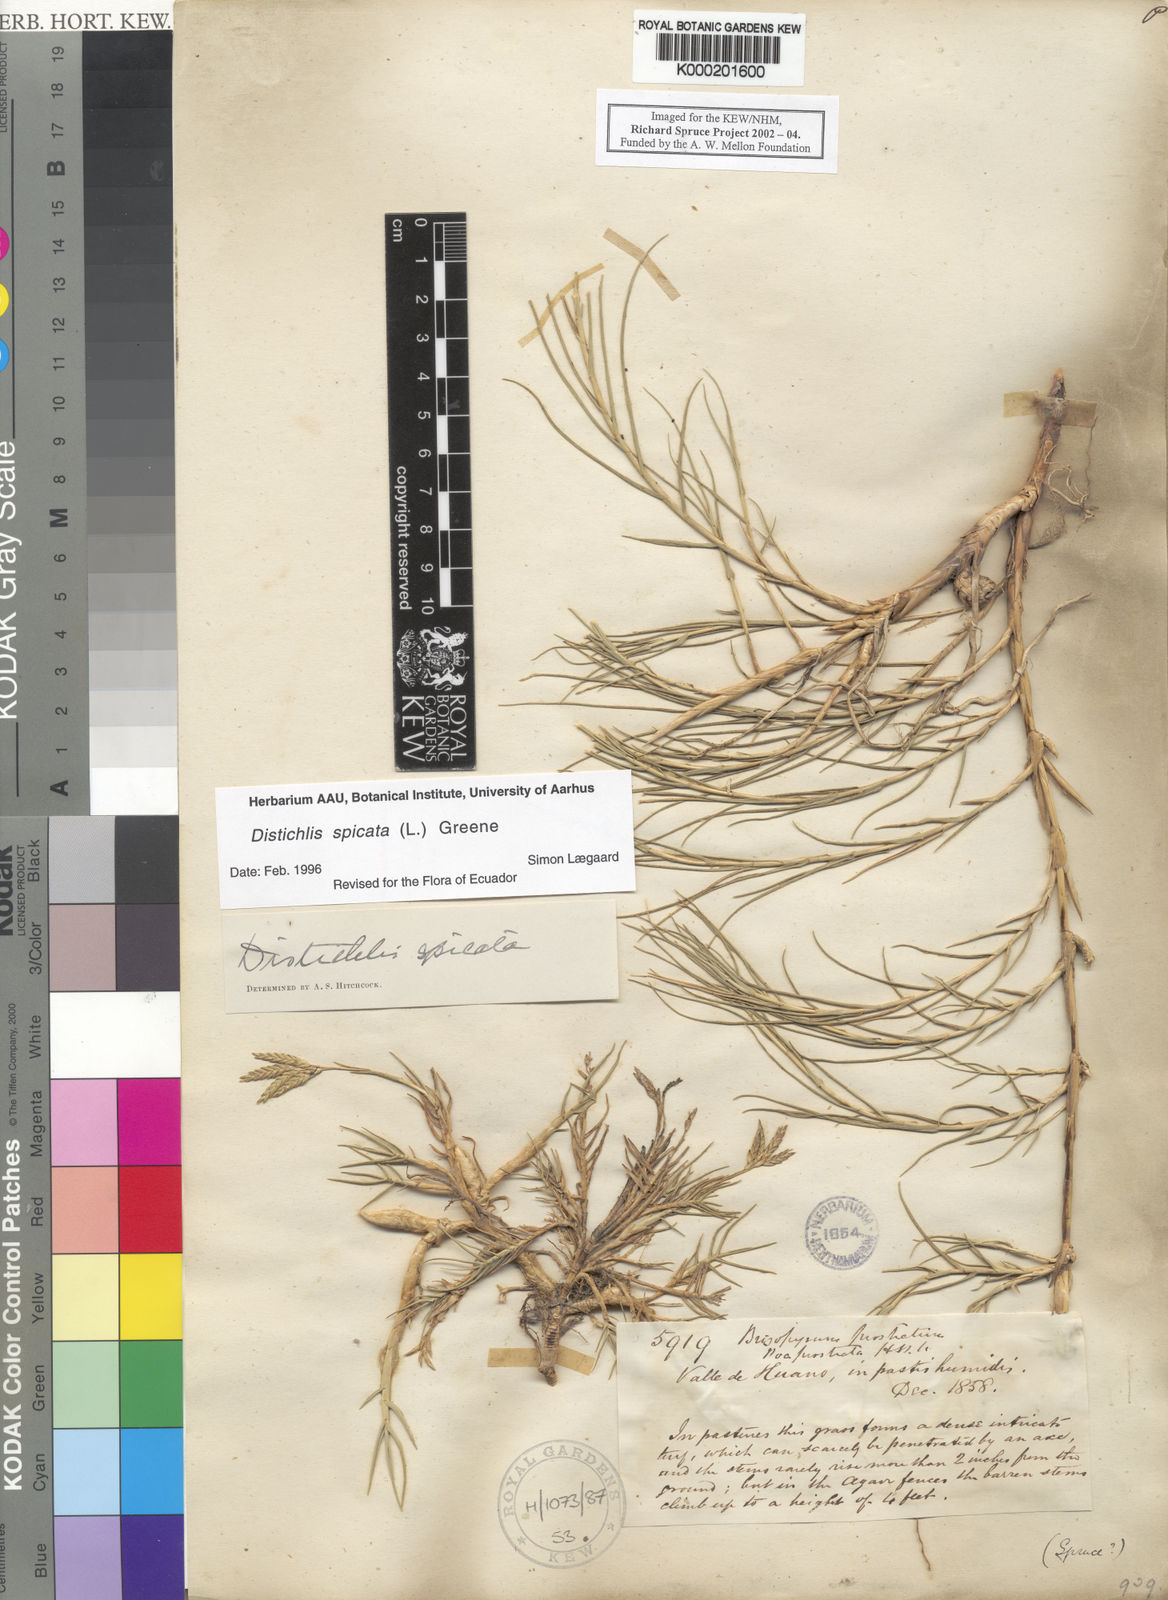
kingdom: Plantae
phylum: Tracheophyta
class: Liliopsida
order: Poales
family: Poaceae
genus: Distichlis
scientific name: Distichlis spicata
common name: Saltgrass
